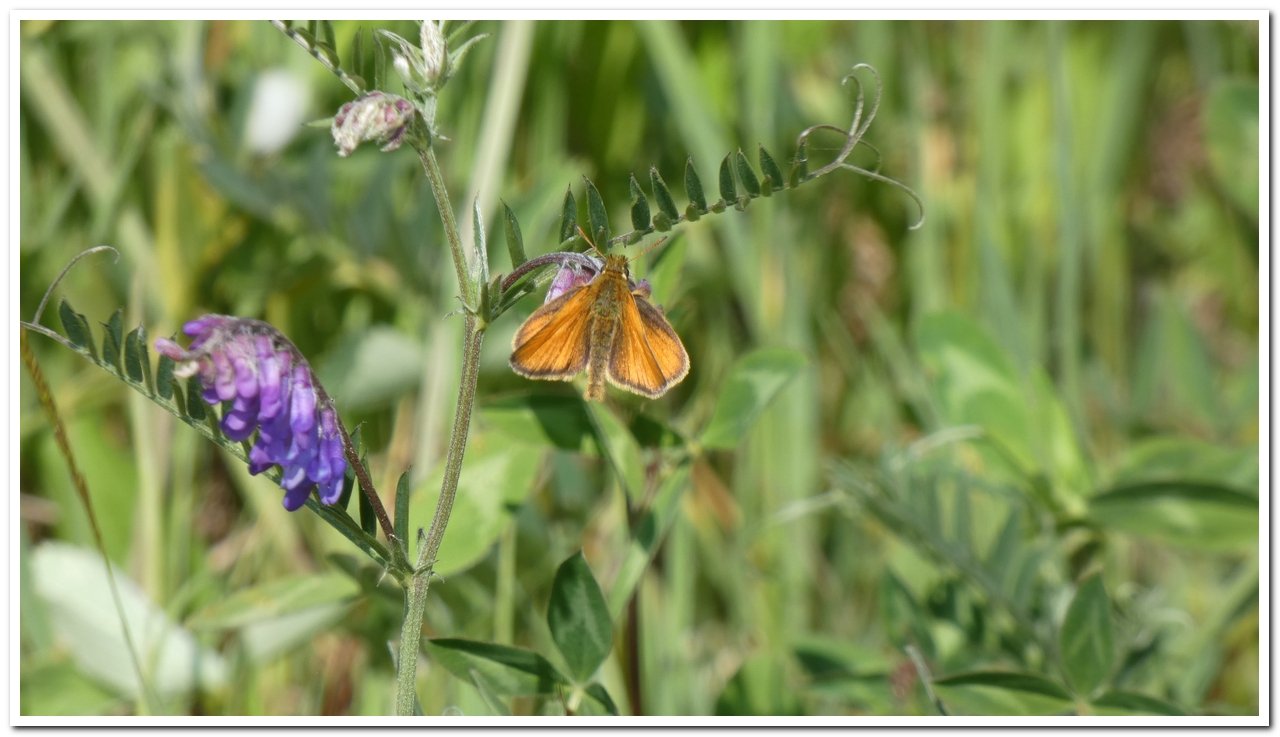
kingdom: Animalia
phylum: Arthropoda
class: Insecta
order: Lepidoptera
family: Hesperiidae
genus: Thymelicus
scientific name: Thymelicus lineola
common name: European Skipper
